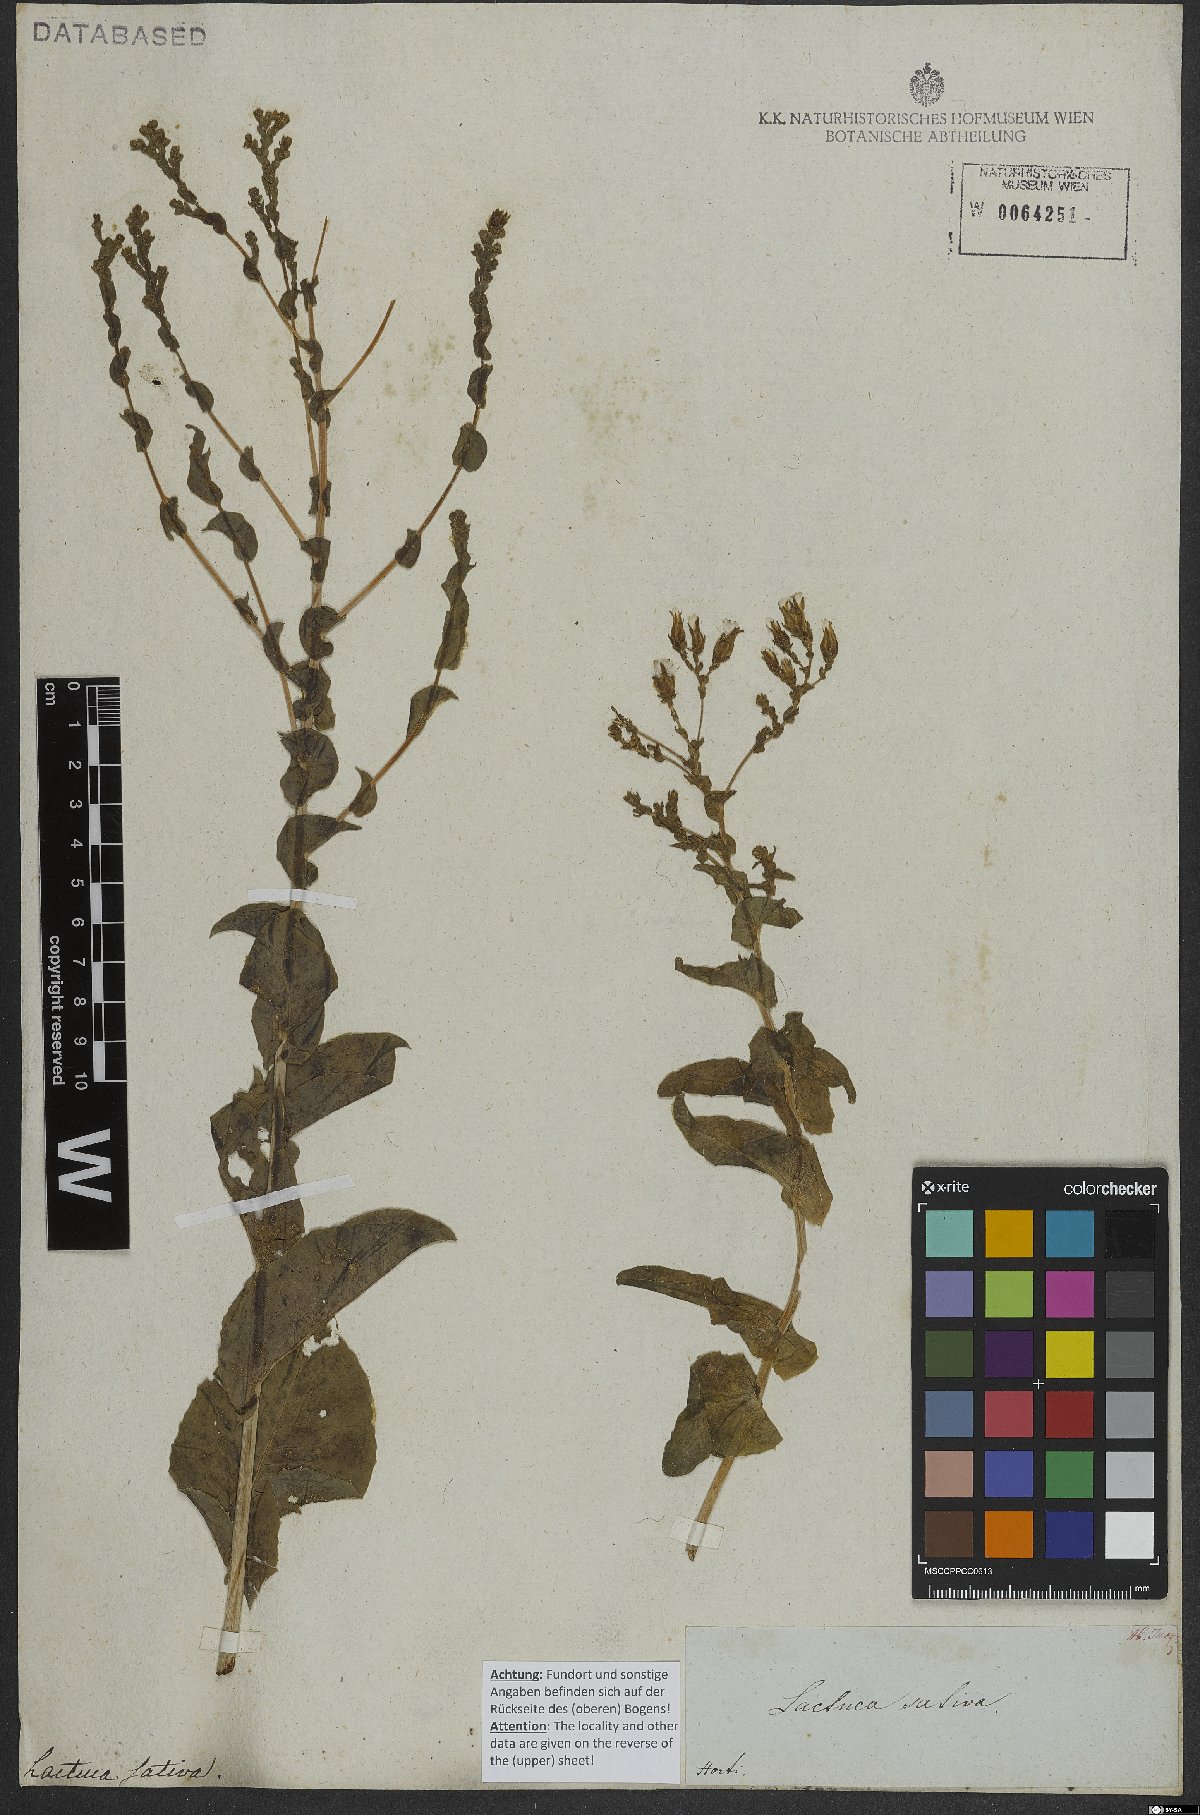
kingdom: Plantae
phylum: Tracheophyta
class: Magnoliopsida
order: Asterales
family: Asteraceae
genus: Lactuca
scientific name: Lactuca sativa
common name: Garden lettuce
